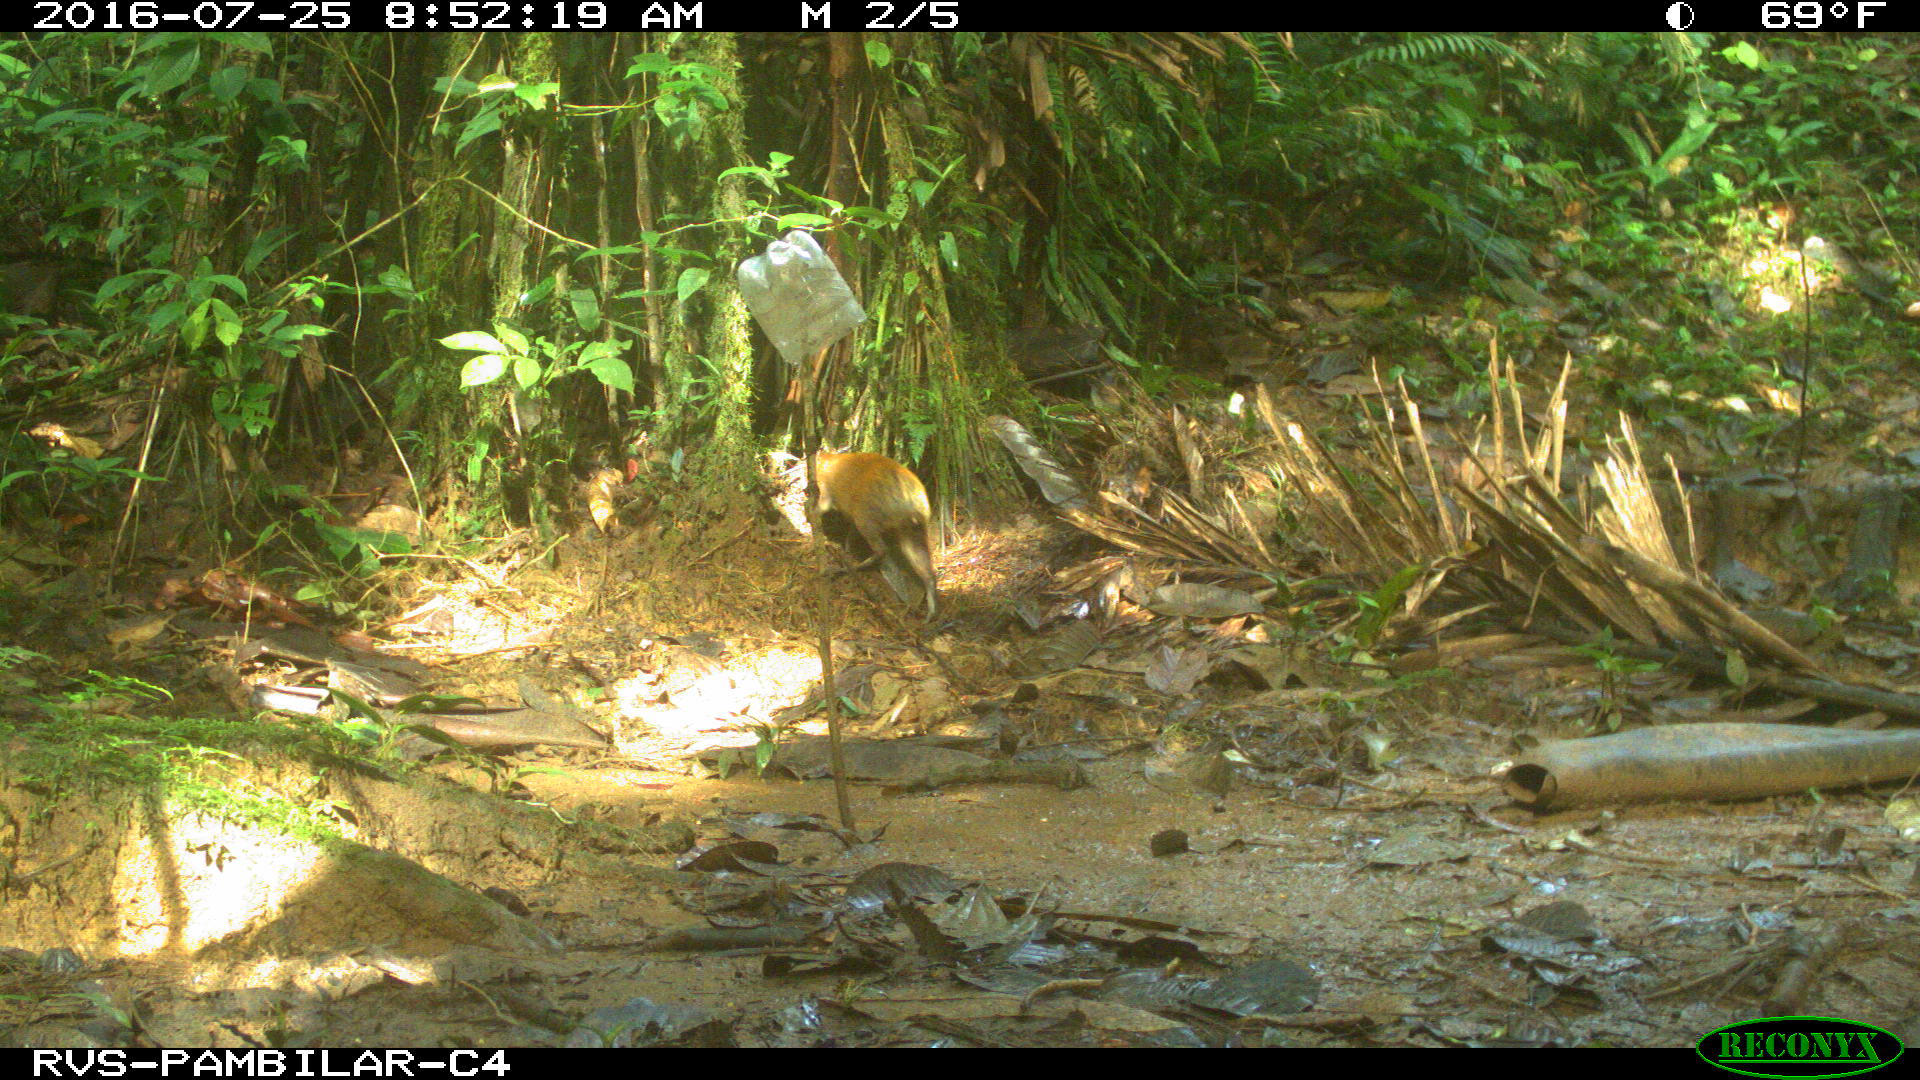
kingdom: Animalia
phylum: Chordata
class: Mammalia
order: Rodentia
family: Dasyproctidae
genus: Dasyprocta
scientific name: Dasyprocta punctata
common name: Central american agouti
